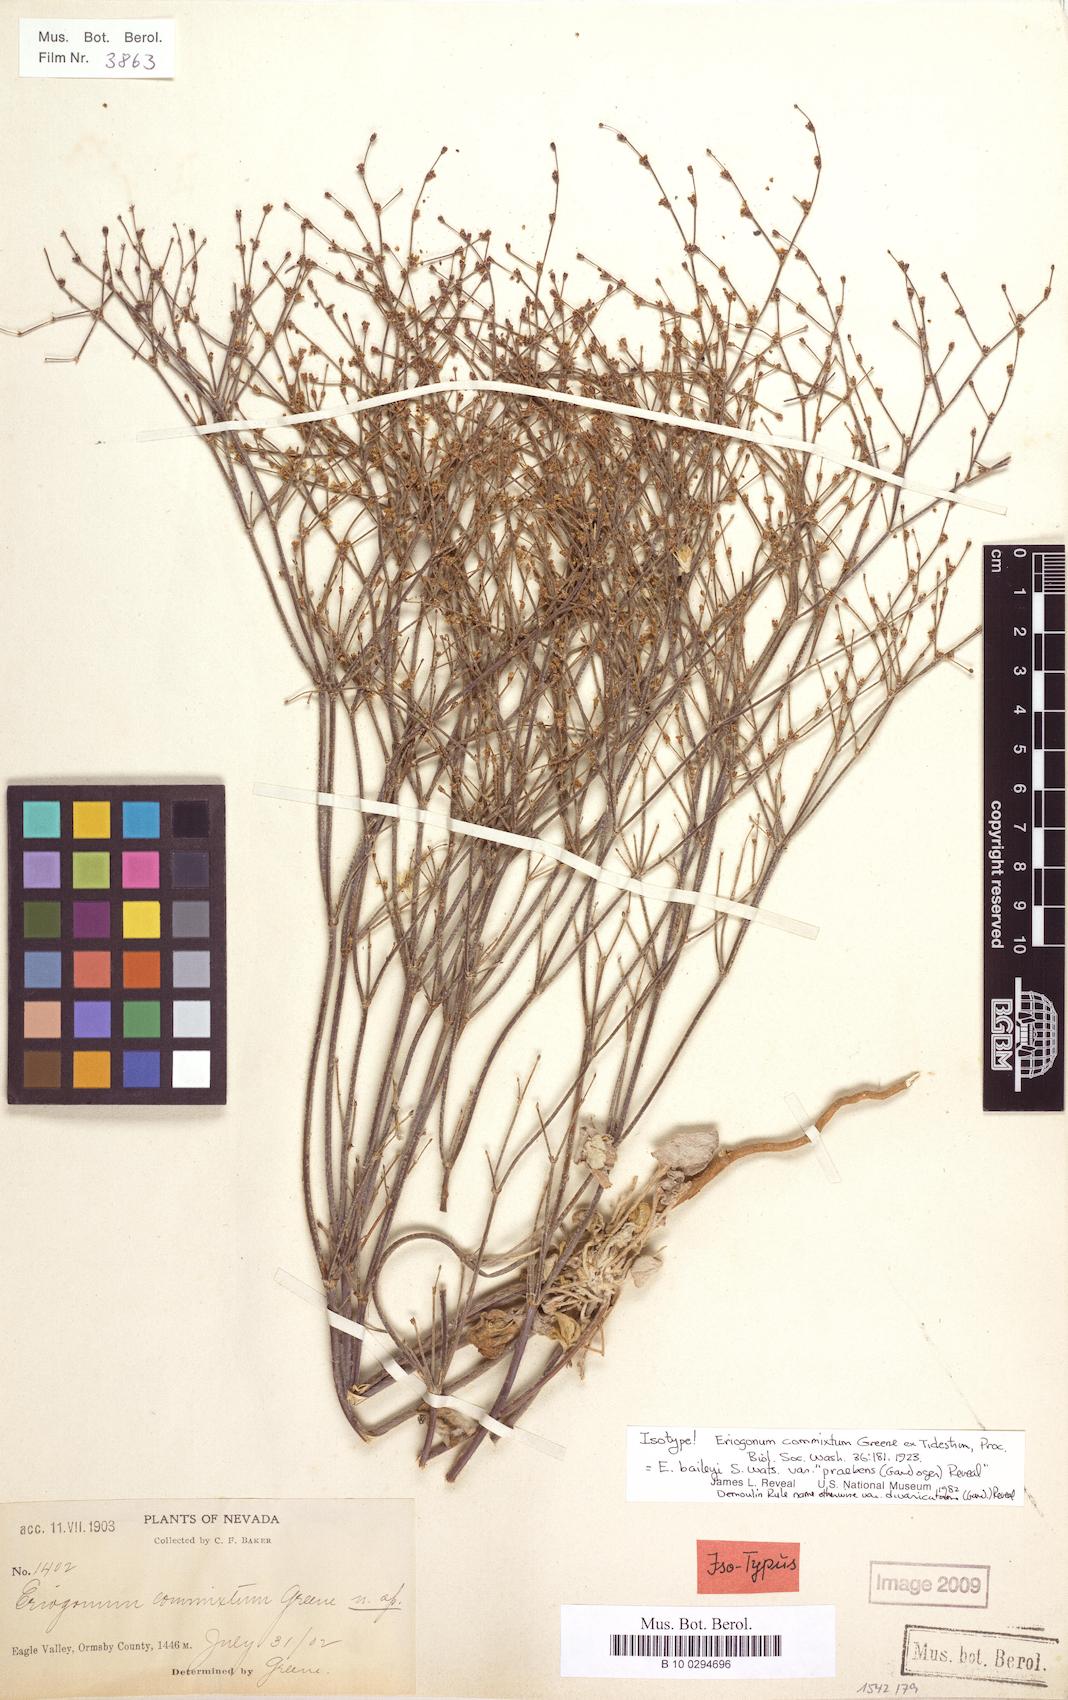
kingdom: Plantae
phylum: Tracheophyta
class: Magnoliopsida
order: Caryophyllales
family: Polygonaceae
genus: Eriogonum
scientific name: Eriogonum baileyi
